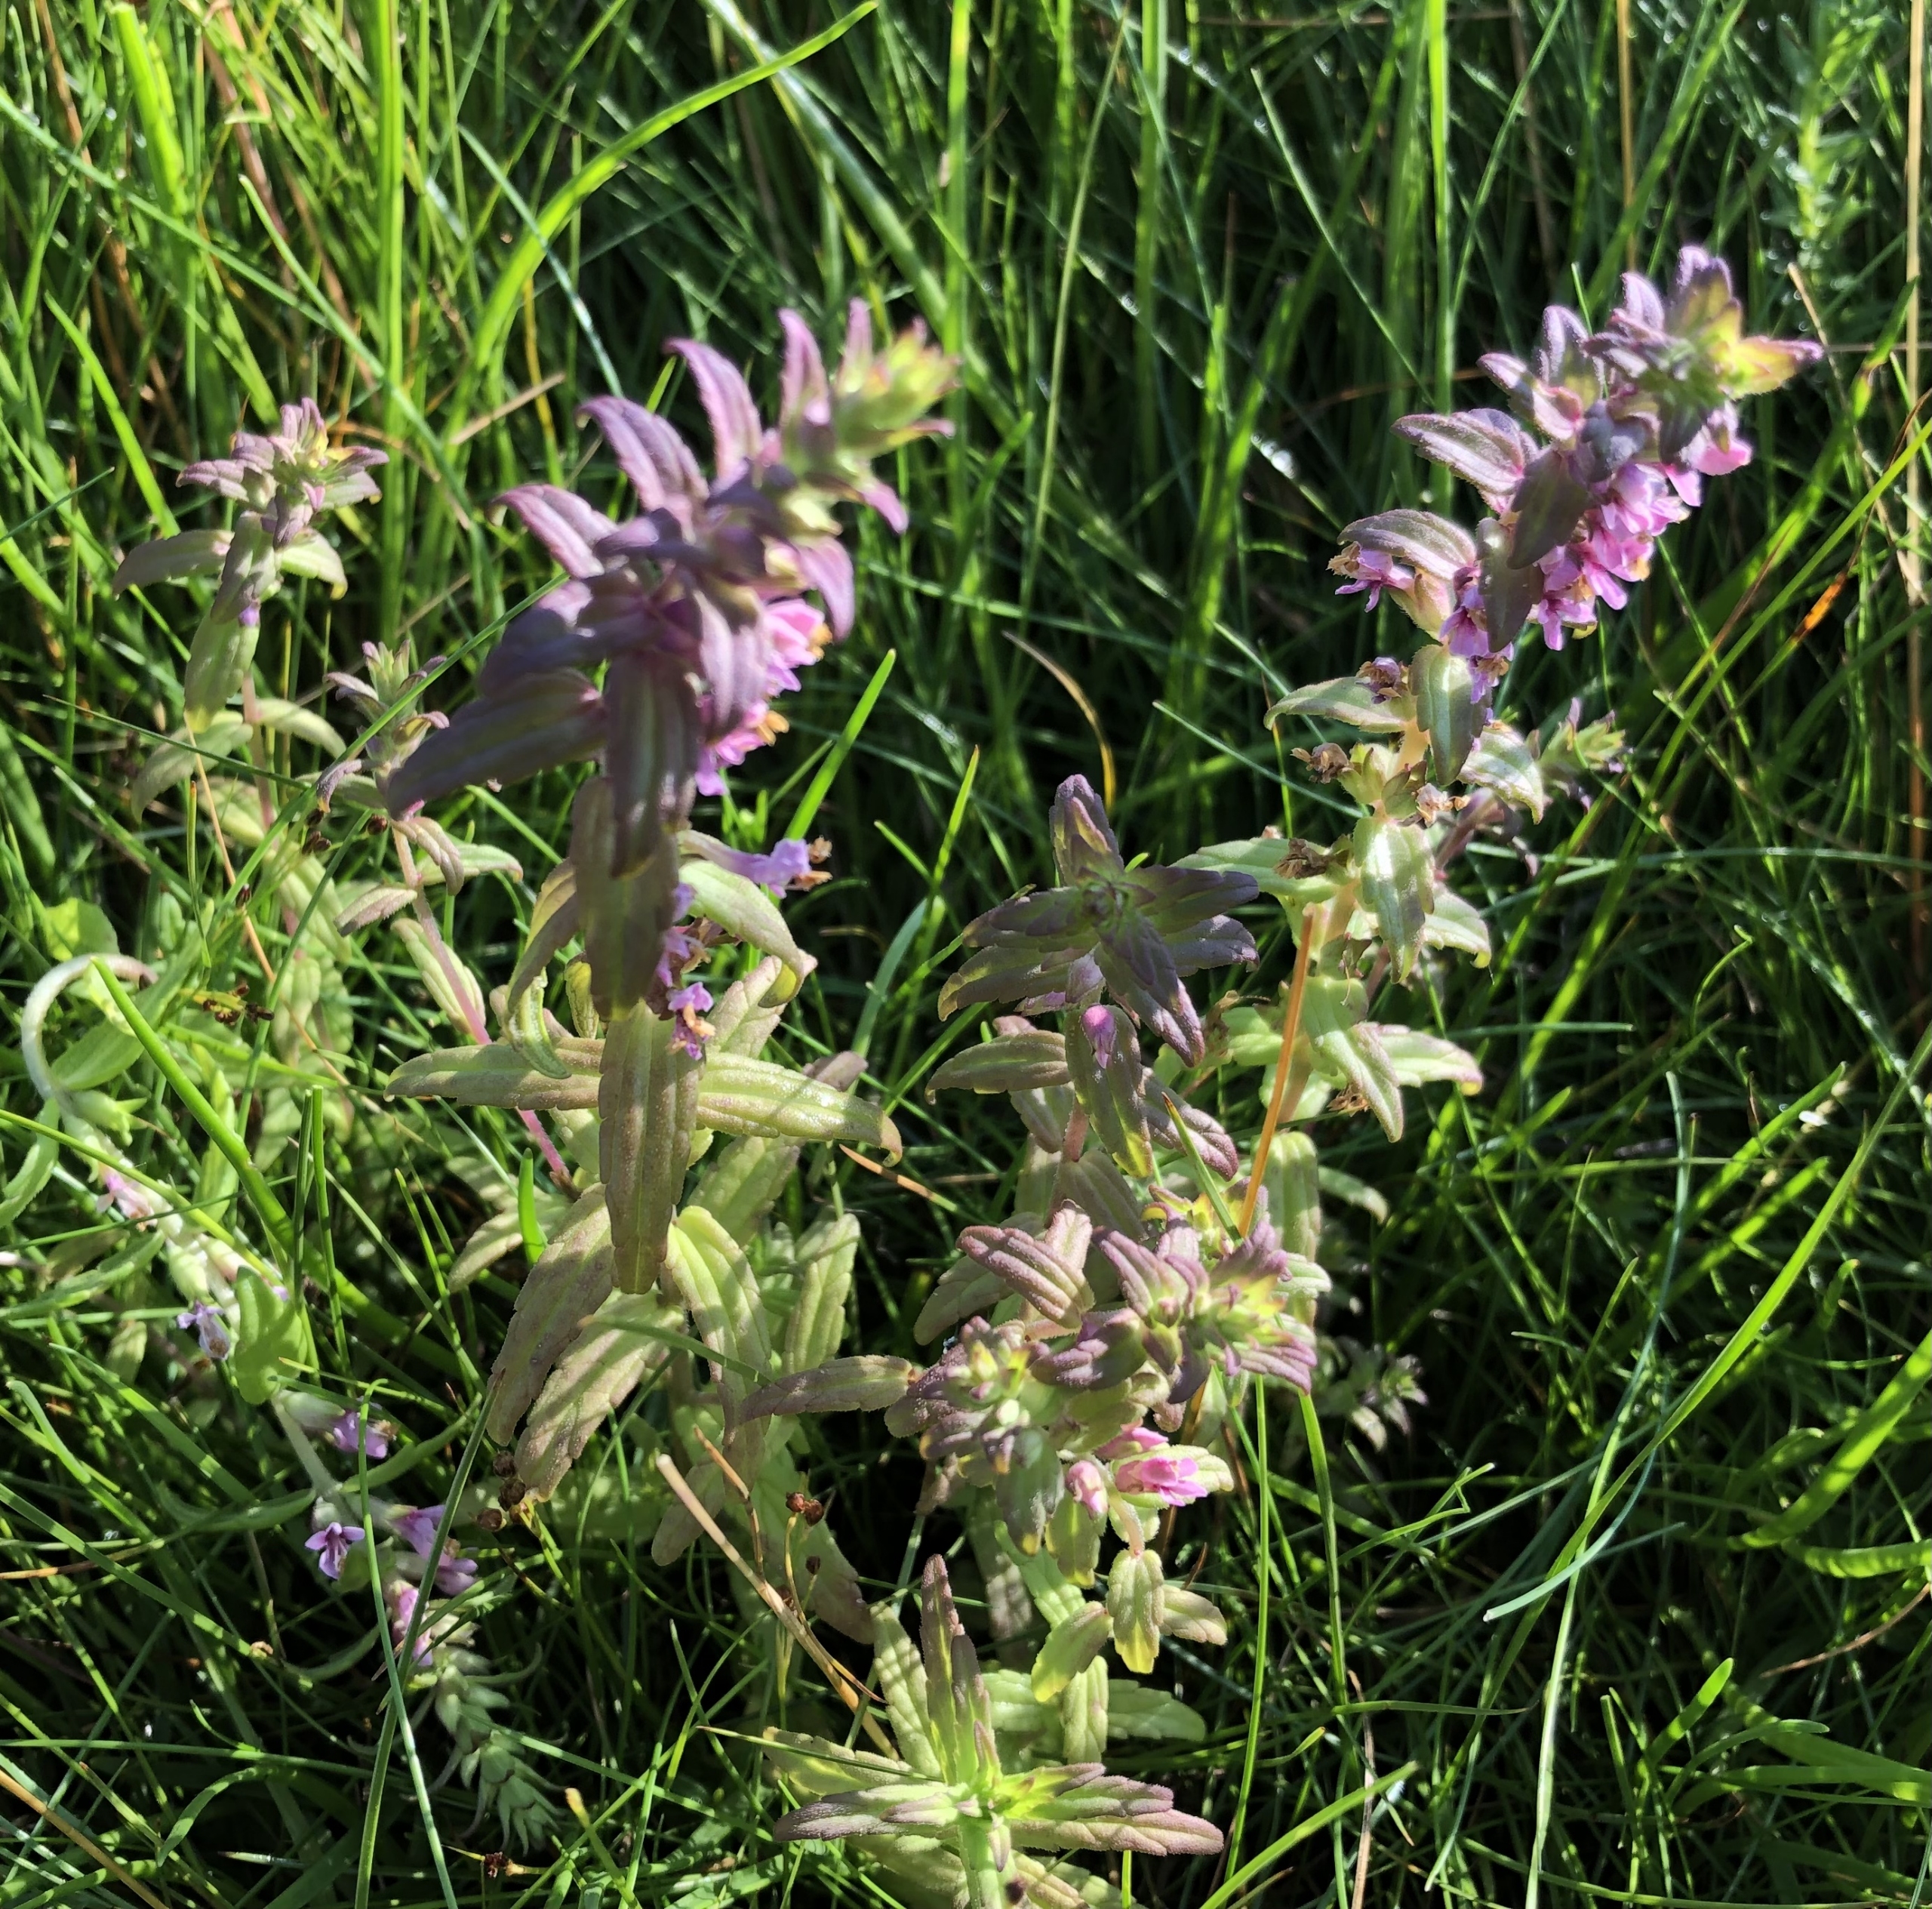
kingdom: Plantae
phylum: Tracheophyta
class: Magnoliopsida
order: Lamiales
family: Orobanchaceae
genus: Odontites
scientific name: Odontites vernus
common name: Mark-rødtop
